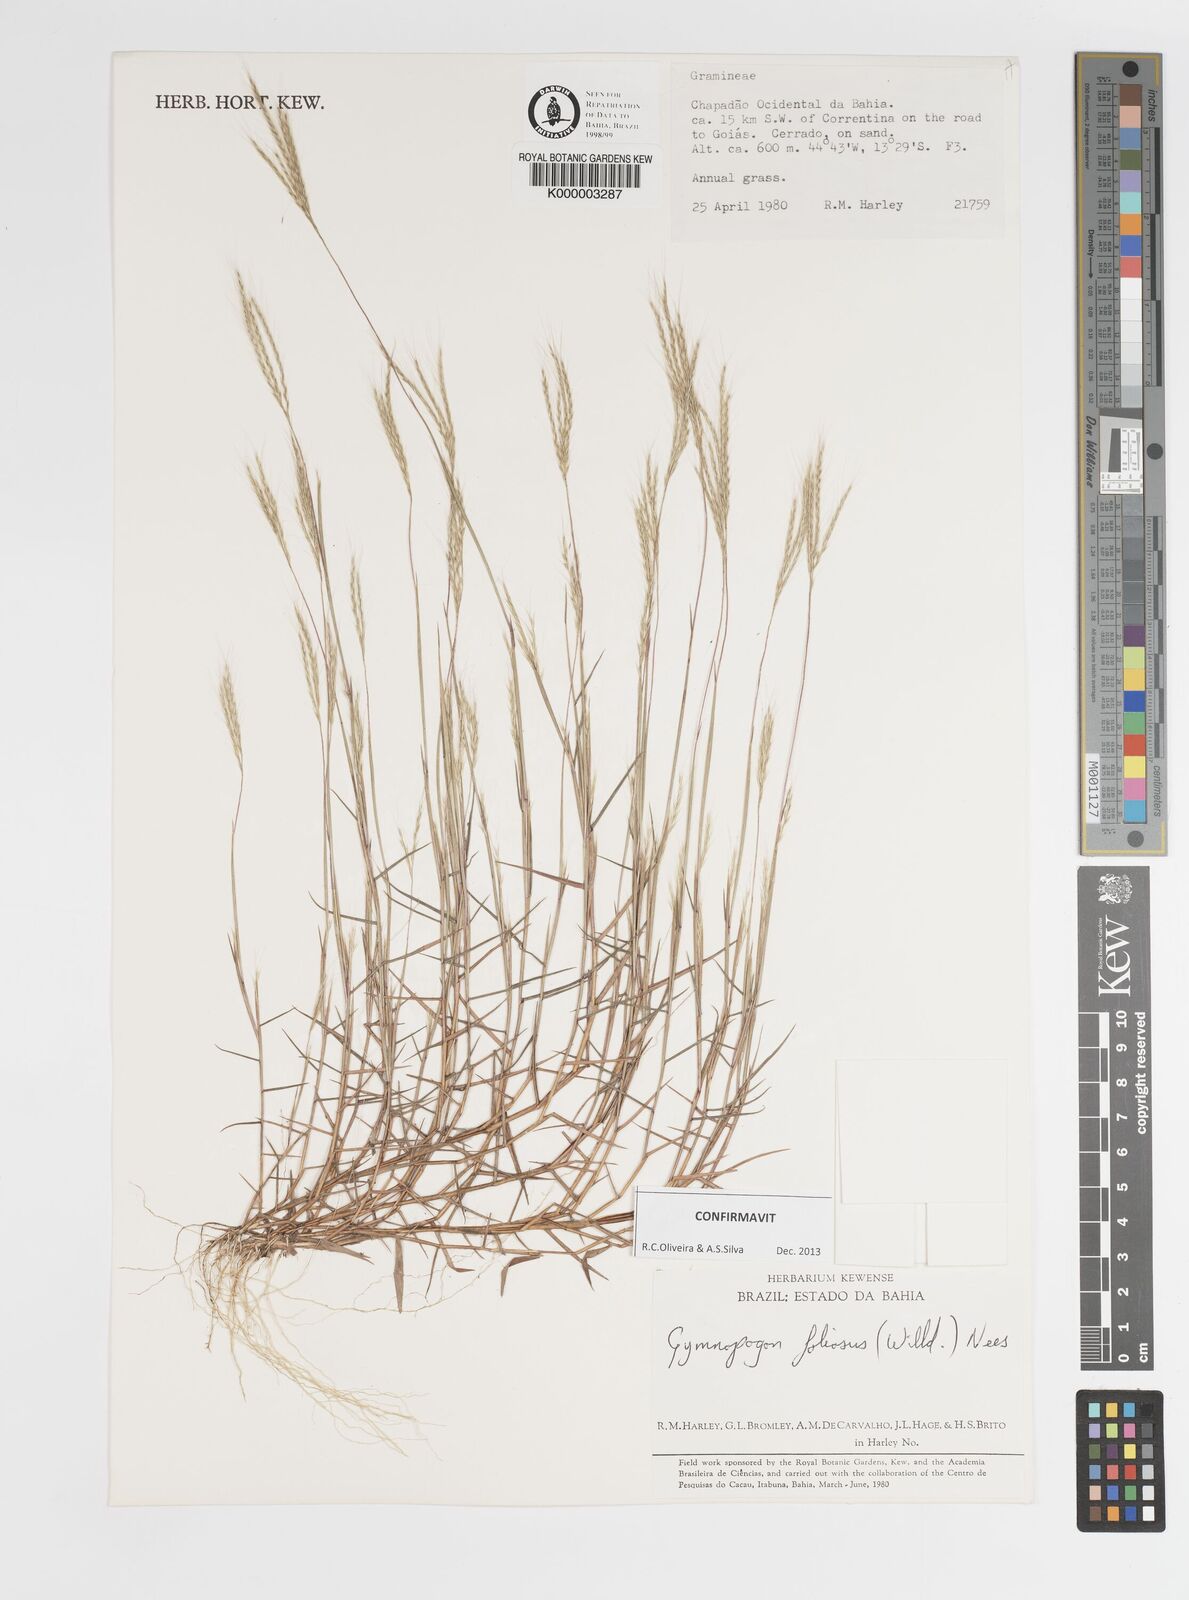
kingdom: Plantae
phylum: Tracheophyta
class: Liliopsida
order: Poales
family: Poaceae
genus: Gymnopogon
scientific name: Gymnopogon foliosus
